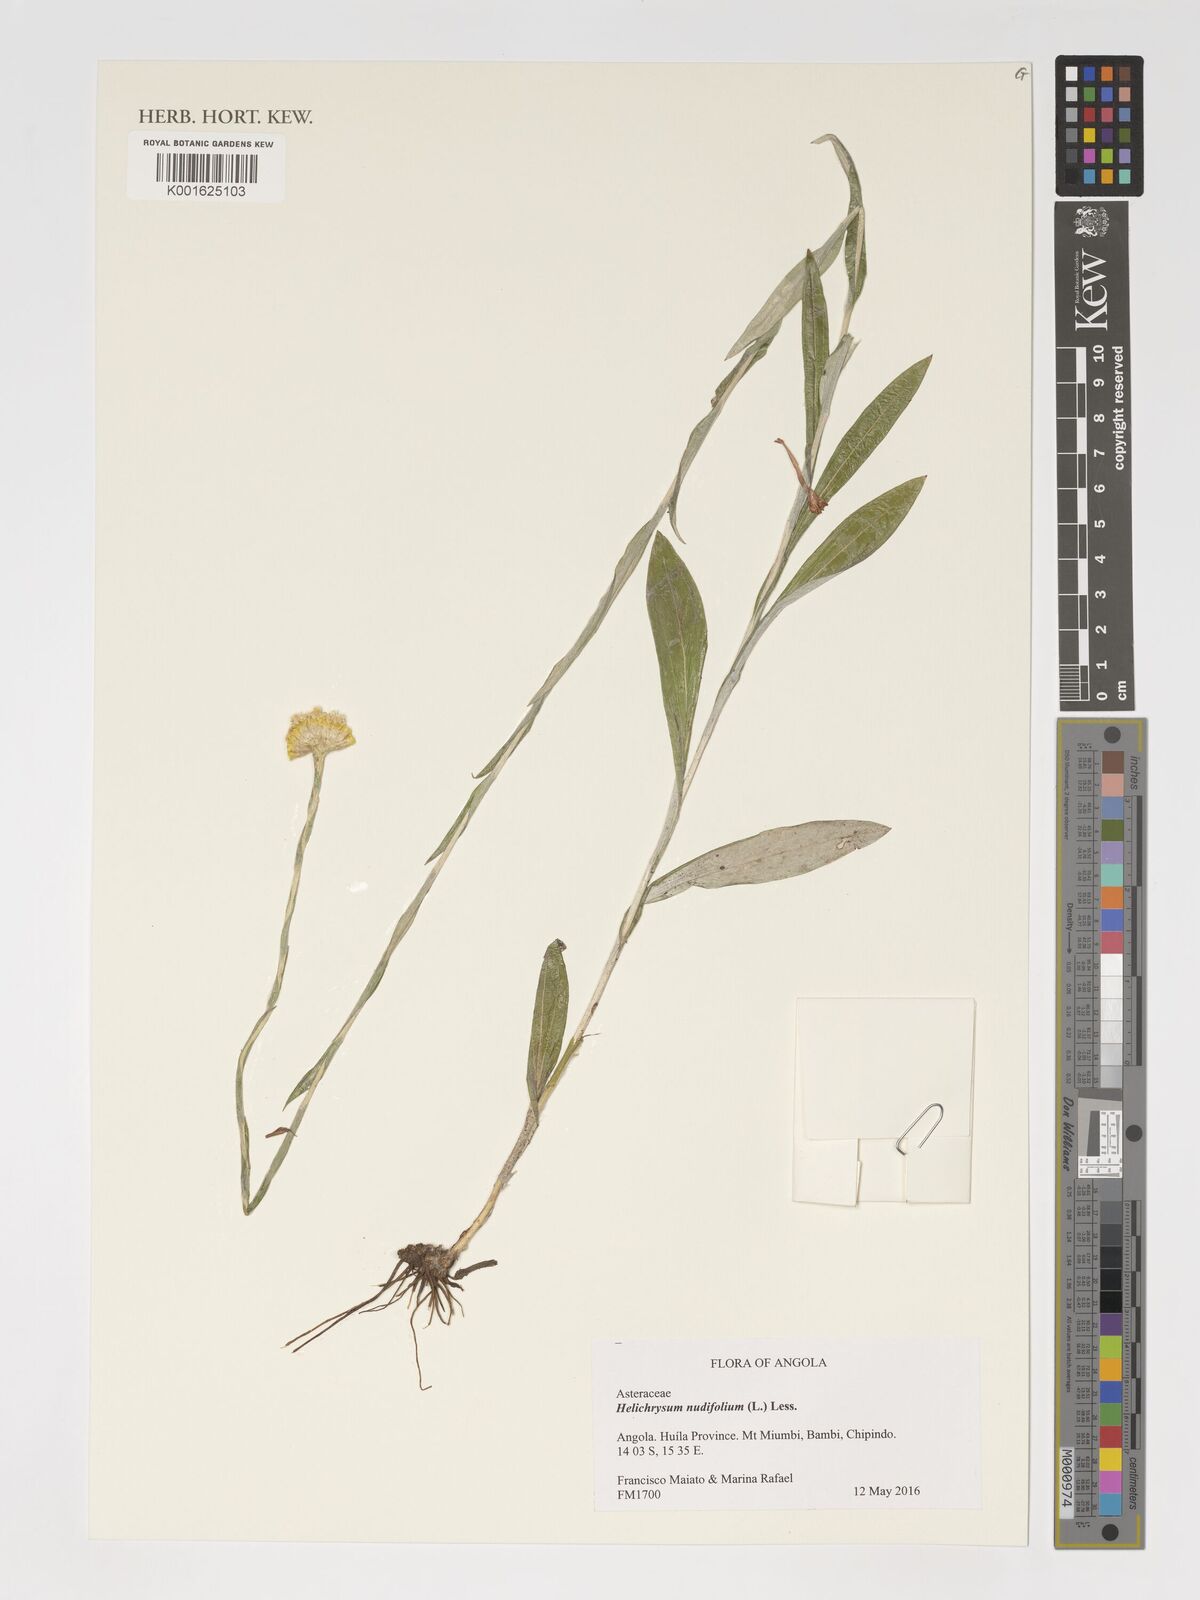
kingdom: Plantae
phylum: Tracheophyta
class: Magnoliopsida
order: Asterales
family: Asteraceae
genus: Helichrysum
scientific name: Helichrysum nudifolium
